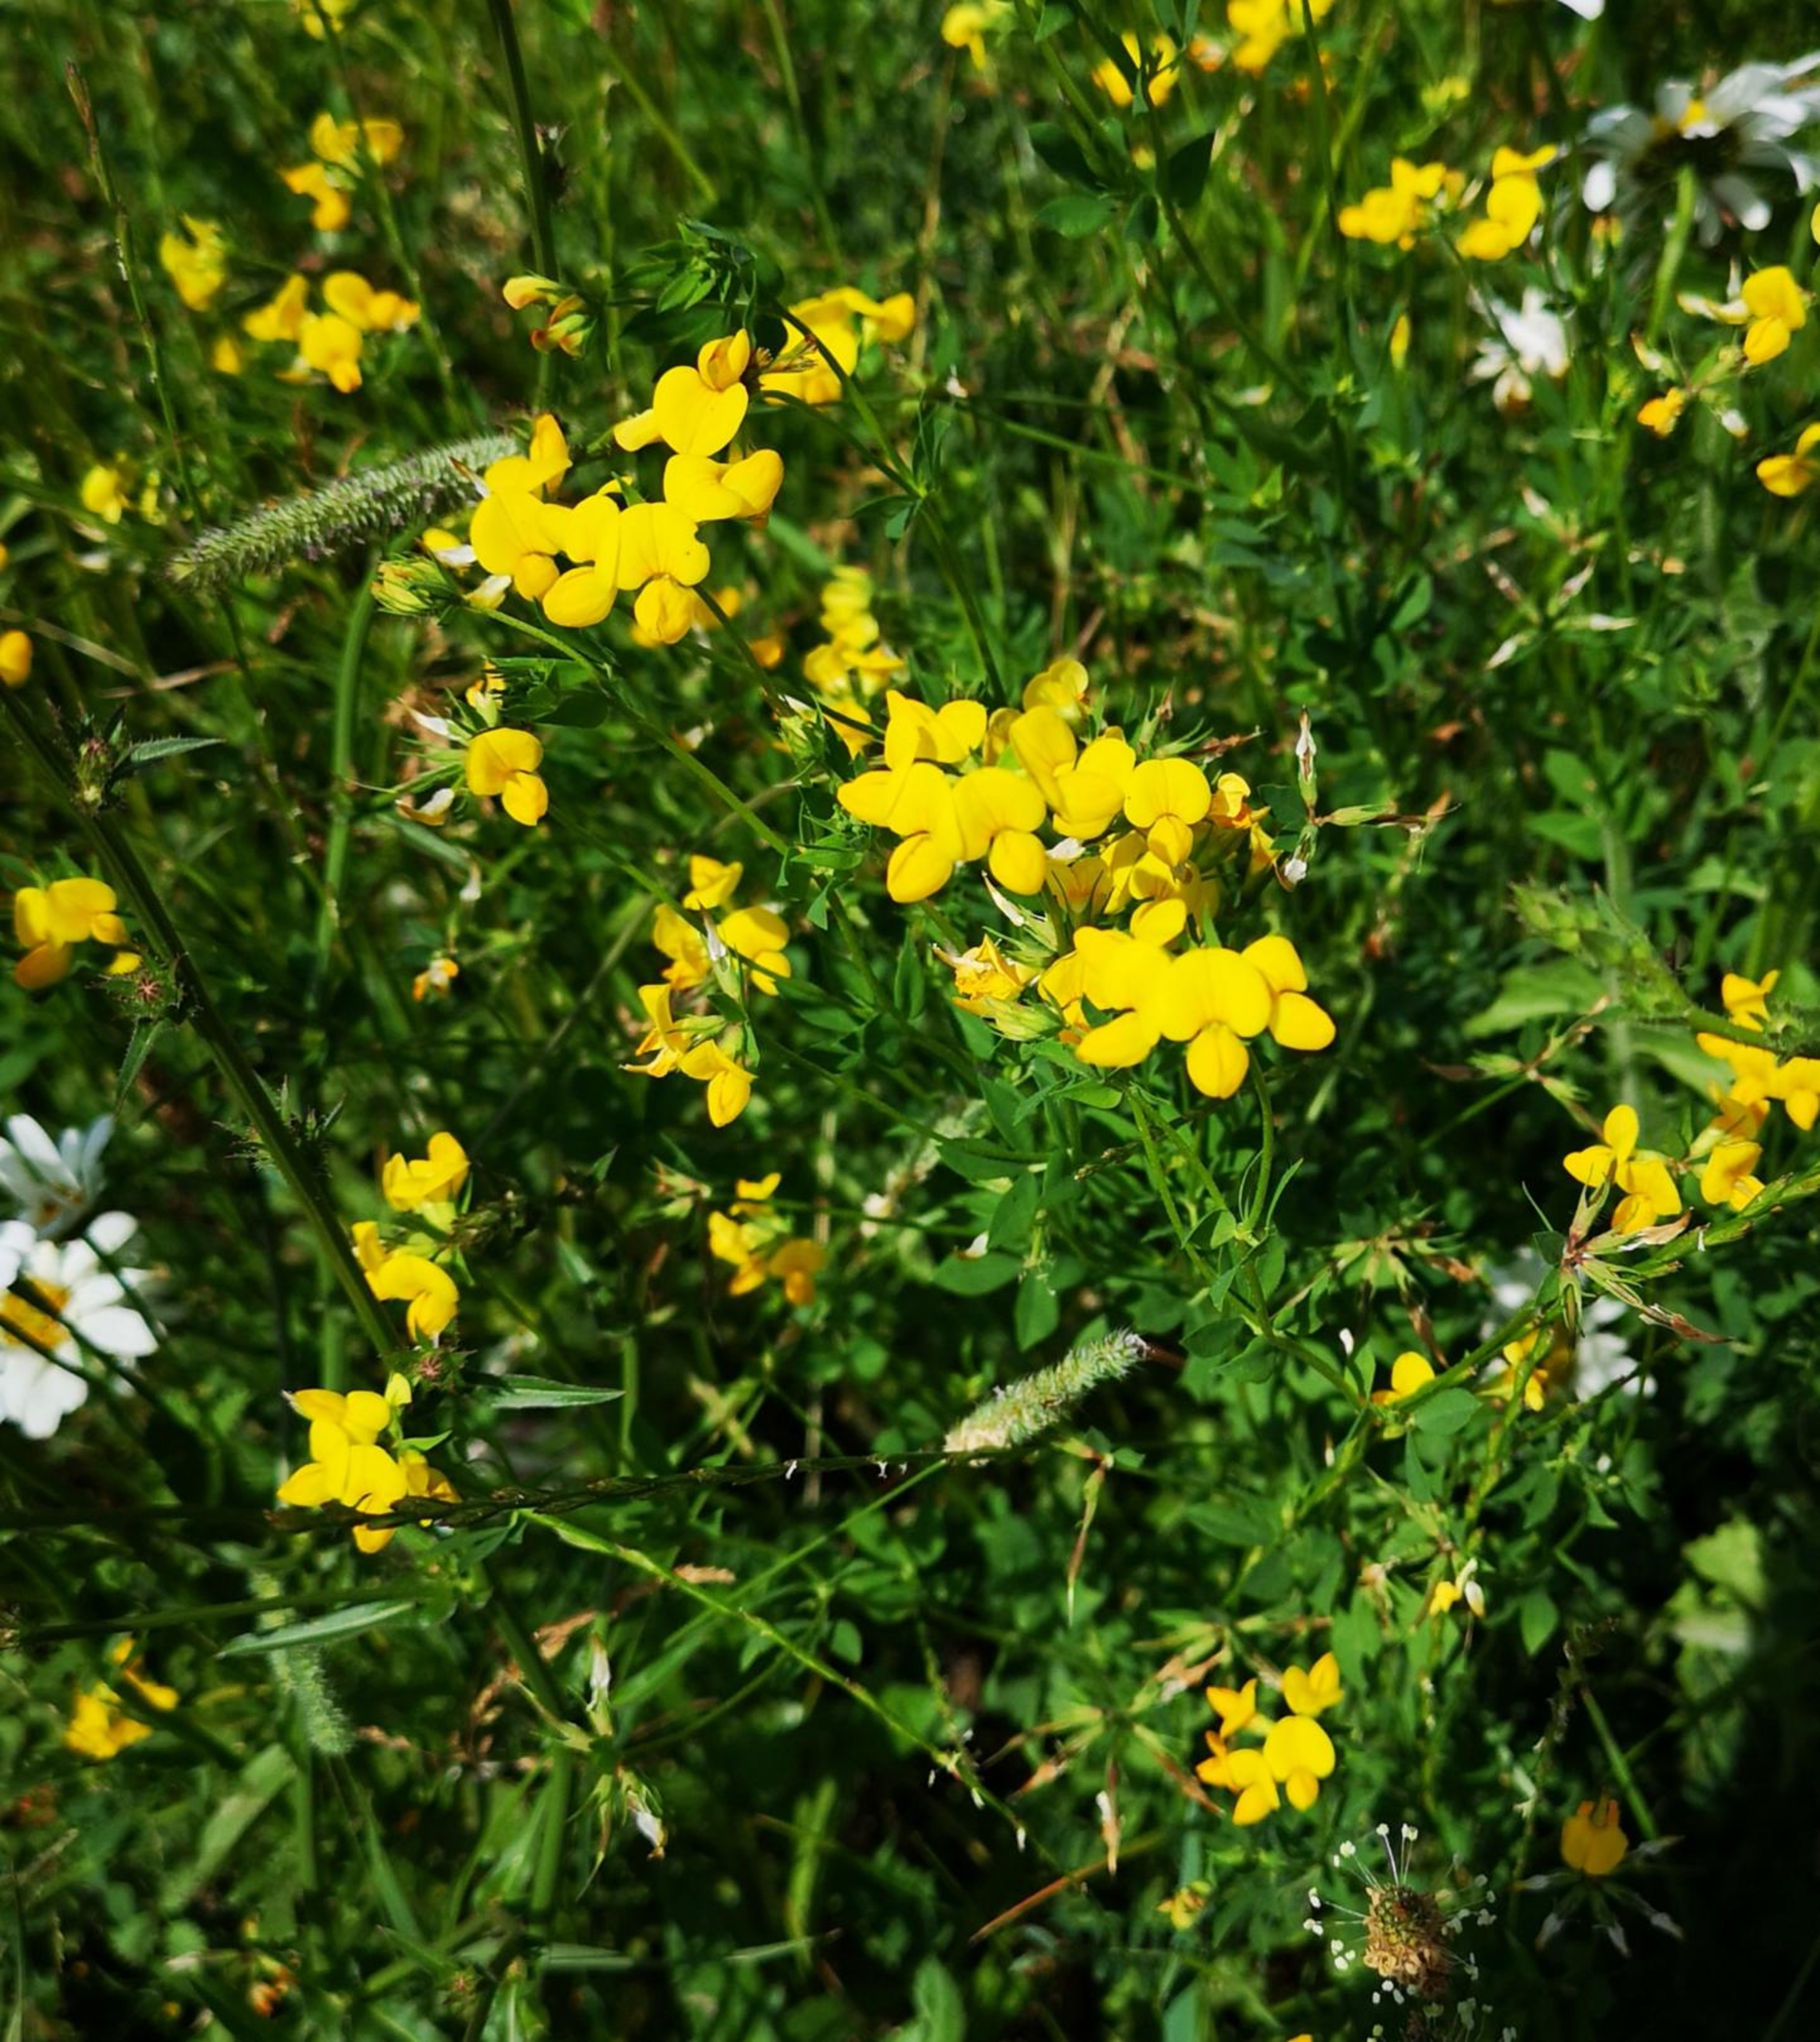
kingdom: Plantae
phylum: Tracheophyta
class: Magnoliopsida
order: Fabales
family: Fabaceae
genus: Lotus
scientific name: Lotus corniculatus
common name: Almindelig kællingetand
